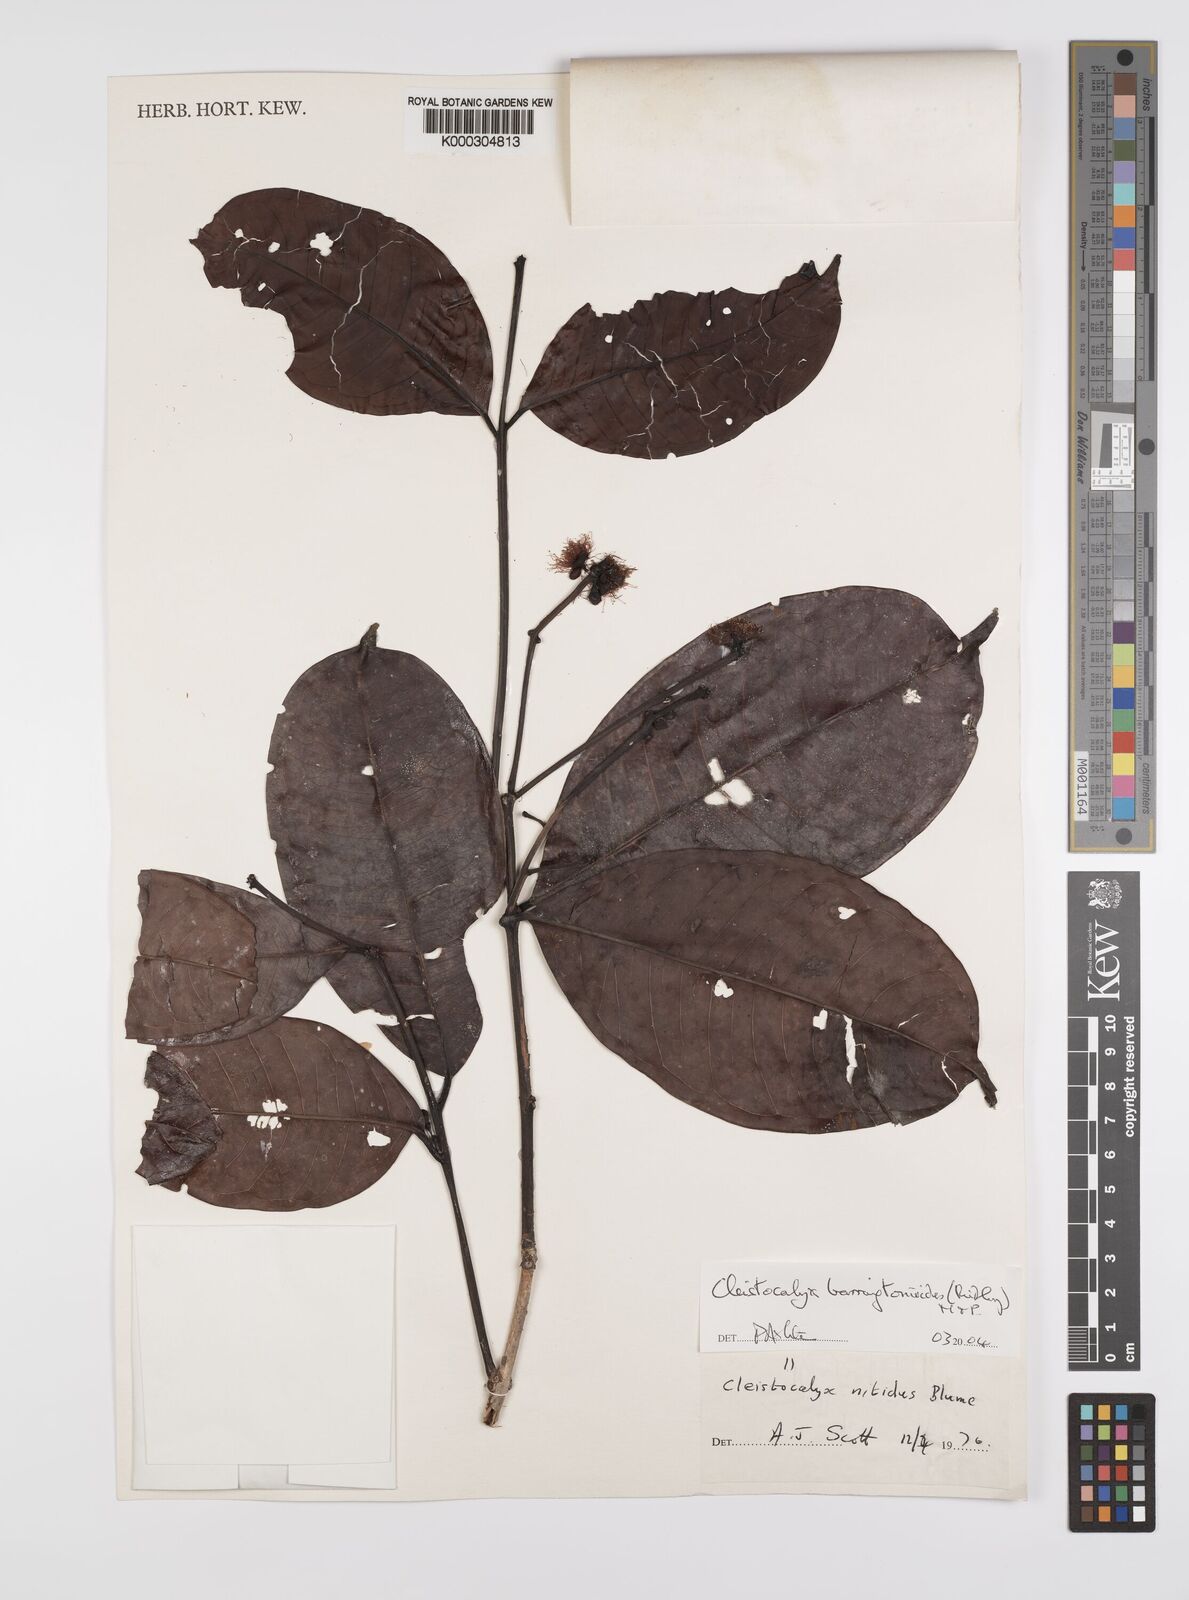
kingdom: Plantae
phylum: Tracheophyta
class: Magnoliopsida
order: Myrtales
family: Myrtaceae
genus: Syzygium
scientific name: Syzygium barringtonioides
